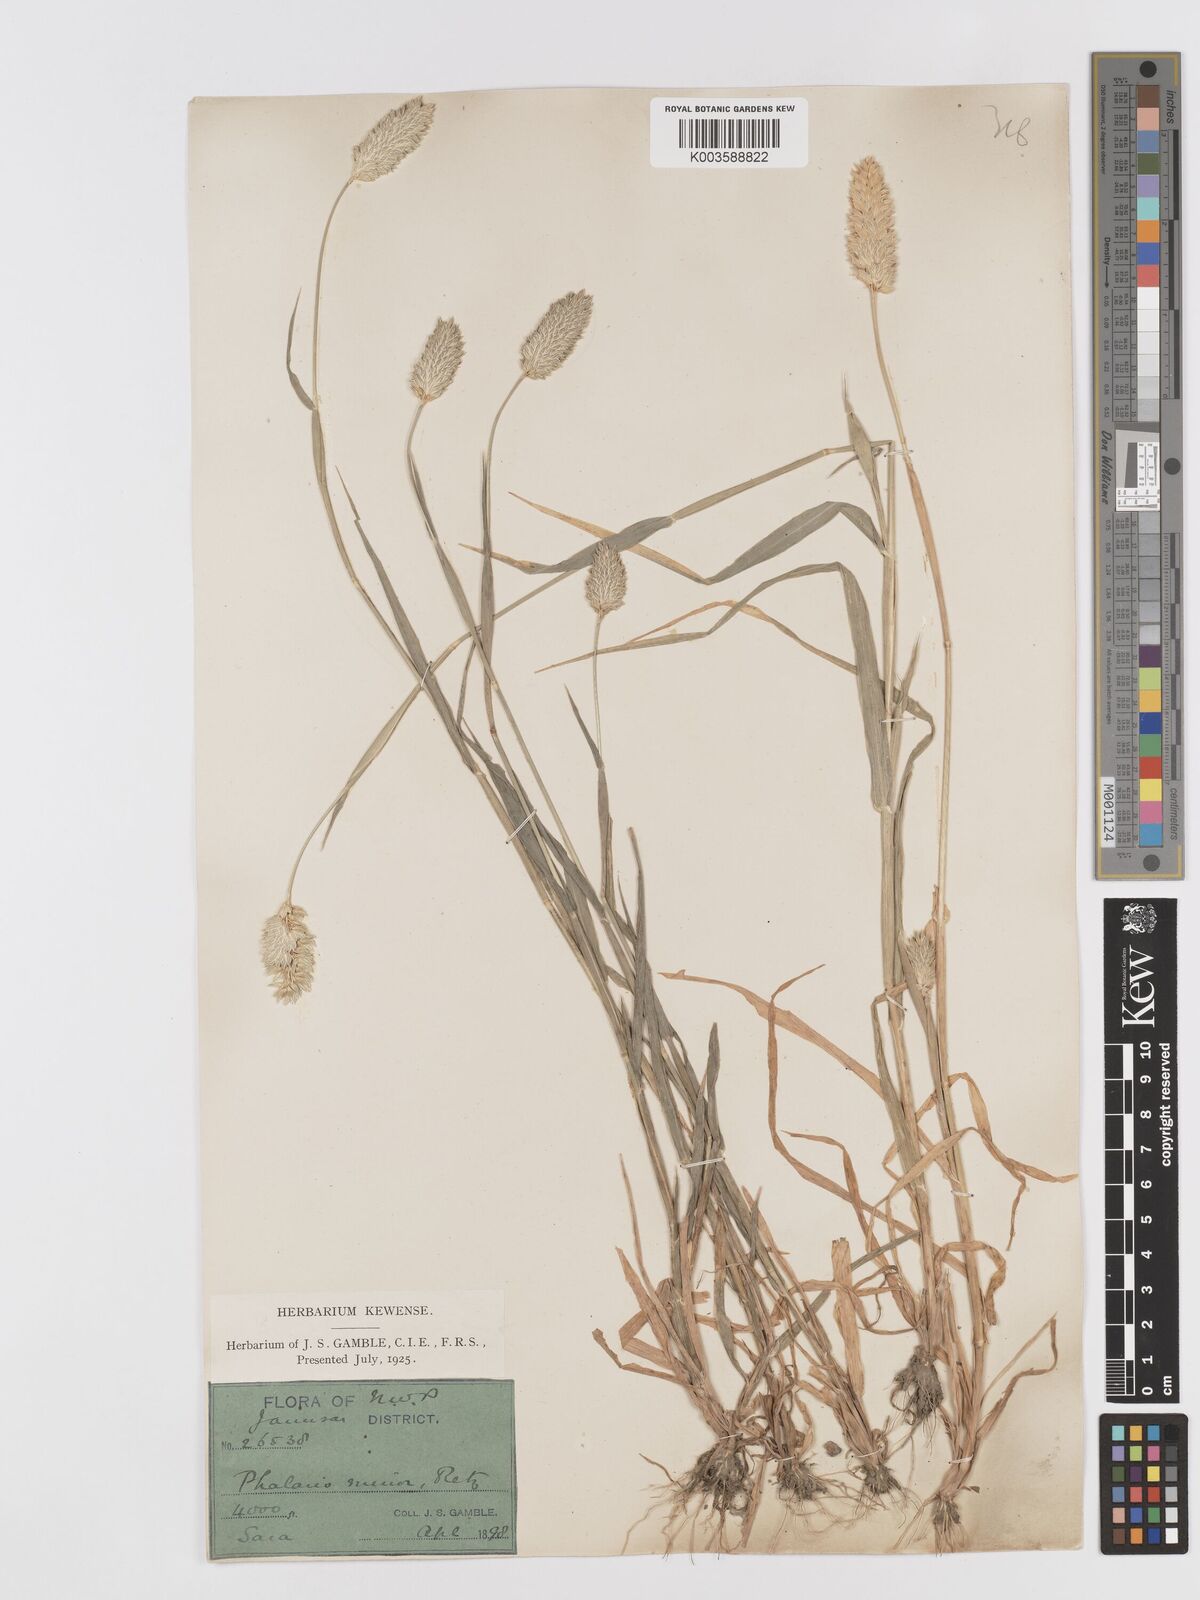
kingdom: Plantae
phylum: Tracheophyta
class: Liliopsida
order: Poales
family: Poaceae
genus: Phalaris
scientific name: Phalaris minor
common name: Littleseed canarygrass
